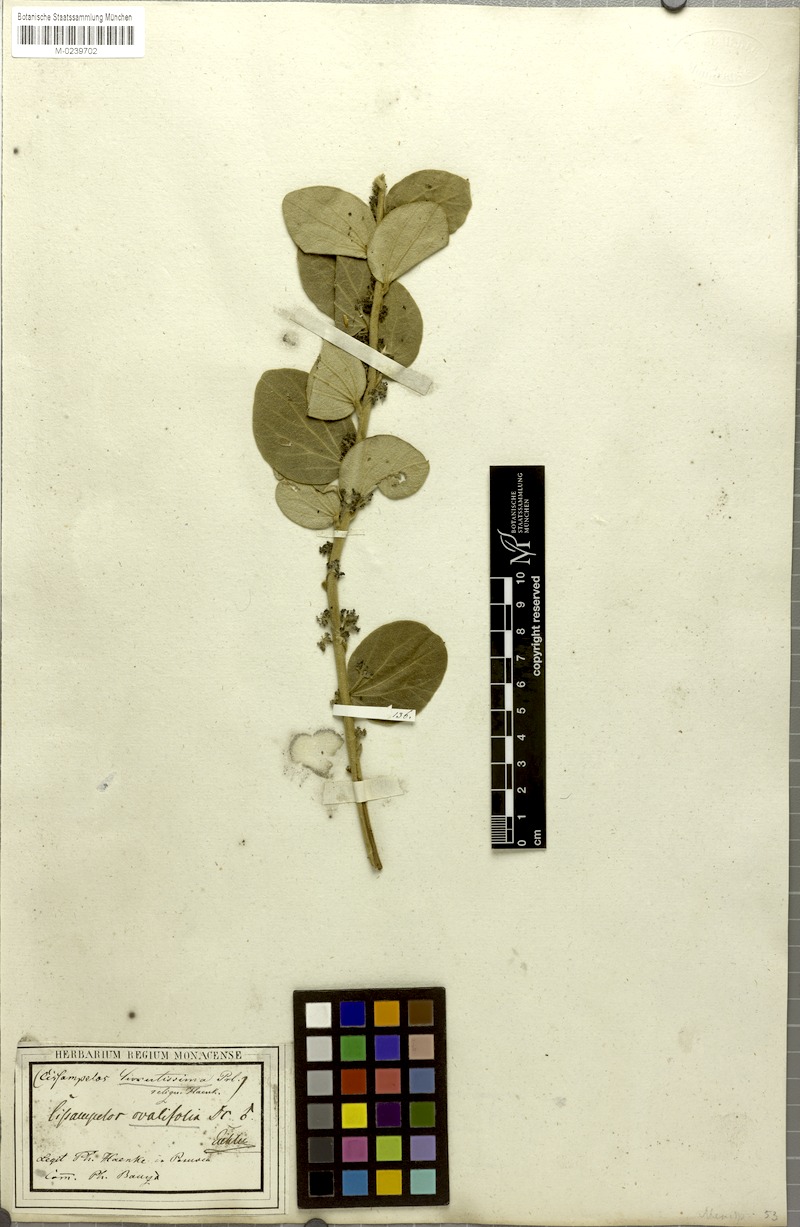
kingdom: Plantae
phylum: Tracheophyta
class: Magnoliopsida
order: Ranunculales
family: Menispermaceae
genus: Cissampelos
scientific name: Cissampelos pareira
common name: Velvetleaf
